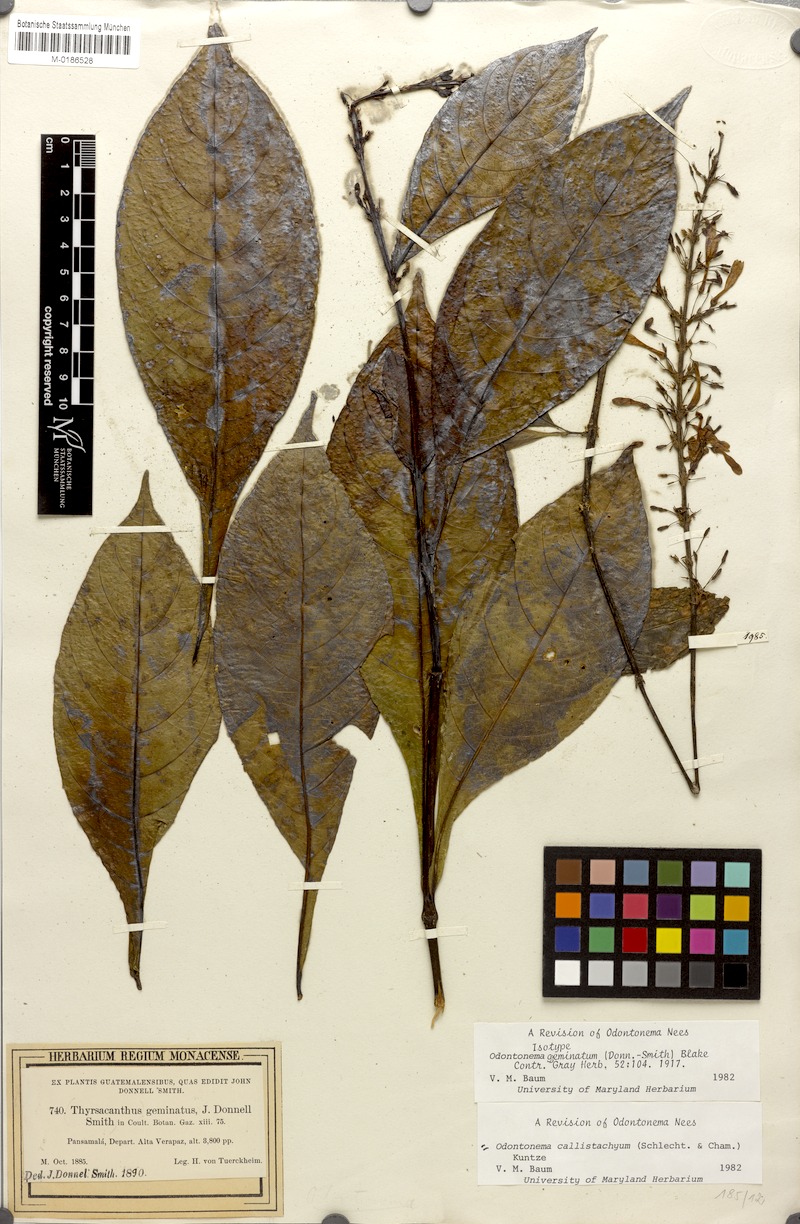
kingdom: Plantae
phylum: Tracheophyta
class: Magnoliopsida
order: Lamiales
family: Acanthaceae
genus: Odontonema
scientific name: Odontonema callistachyum
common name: Firespike
